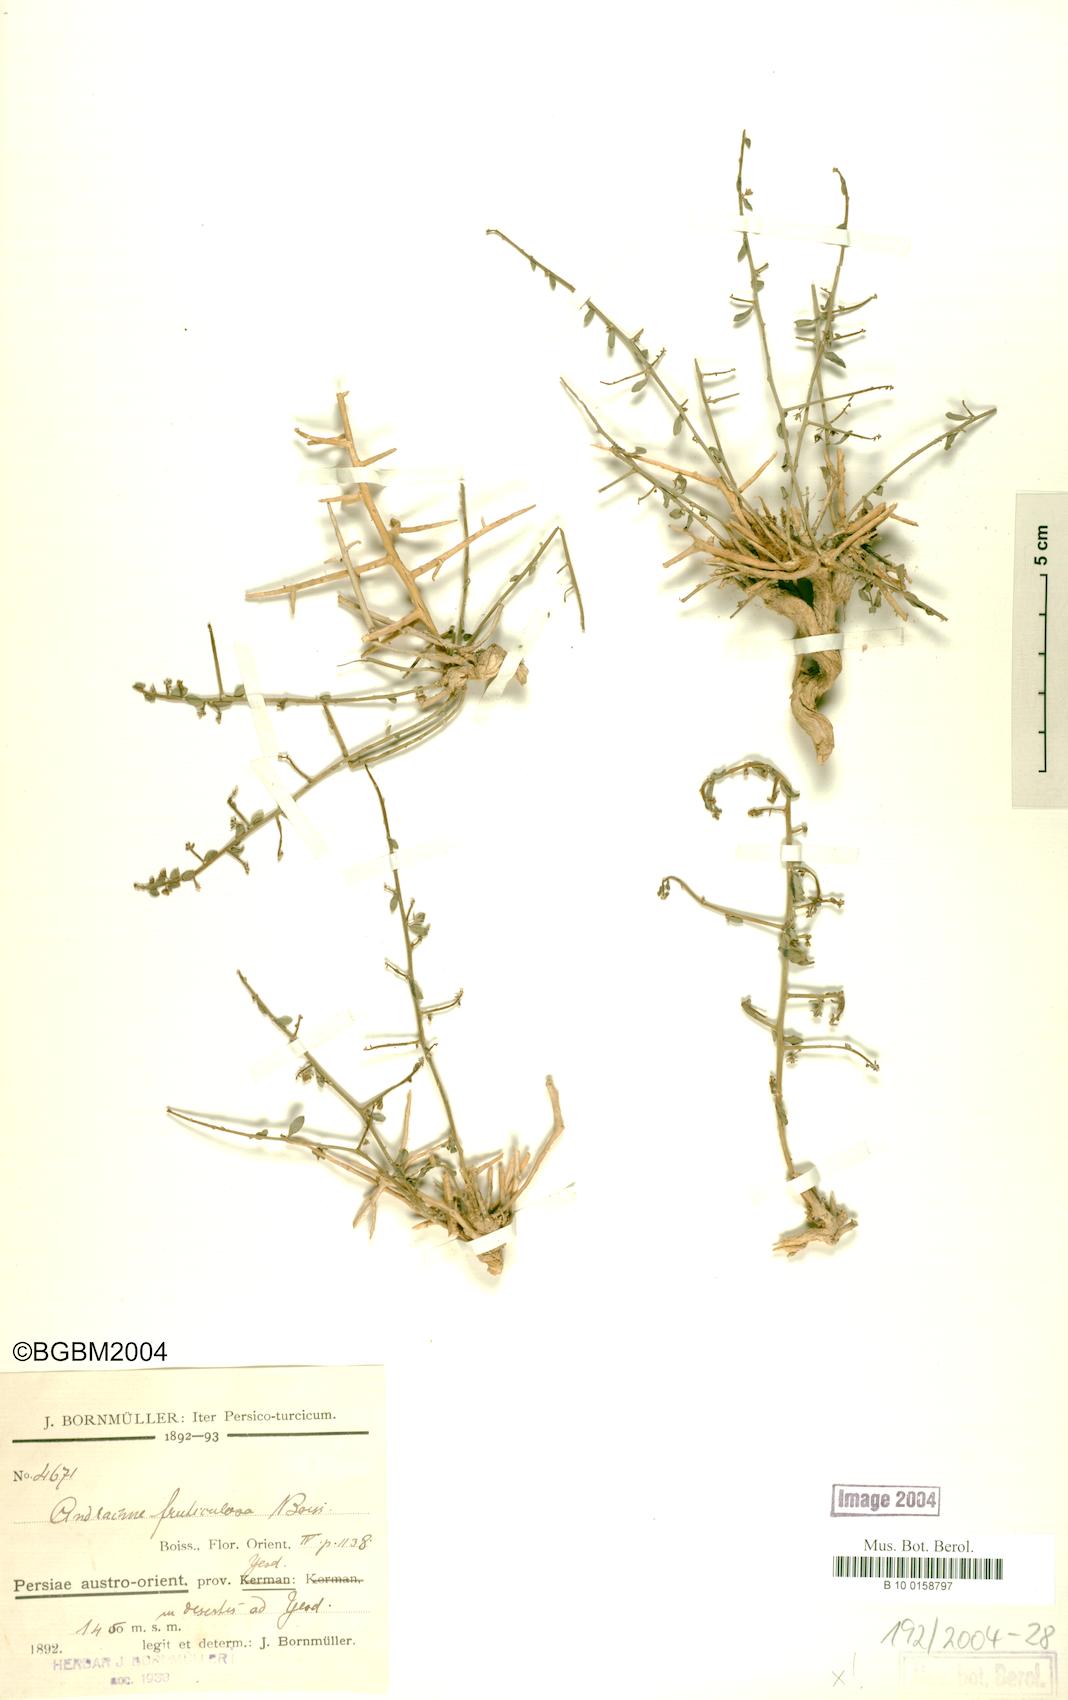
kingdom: Plantae
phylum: Tracheophyta
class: Magnoliopsida
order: Malpighiales
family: Phyllanthaceae
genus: Andrachne
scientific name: Andrachne fruticulosa
